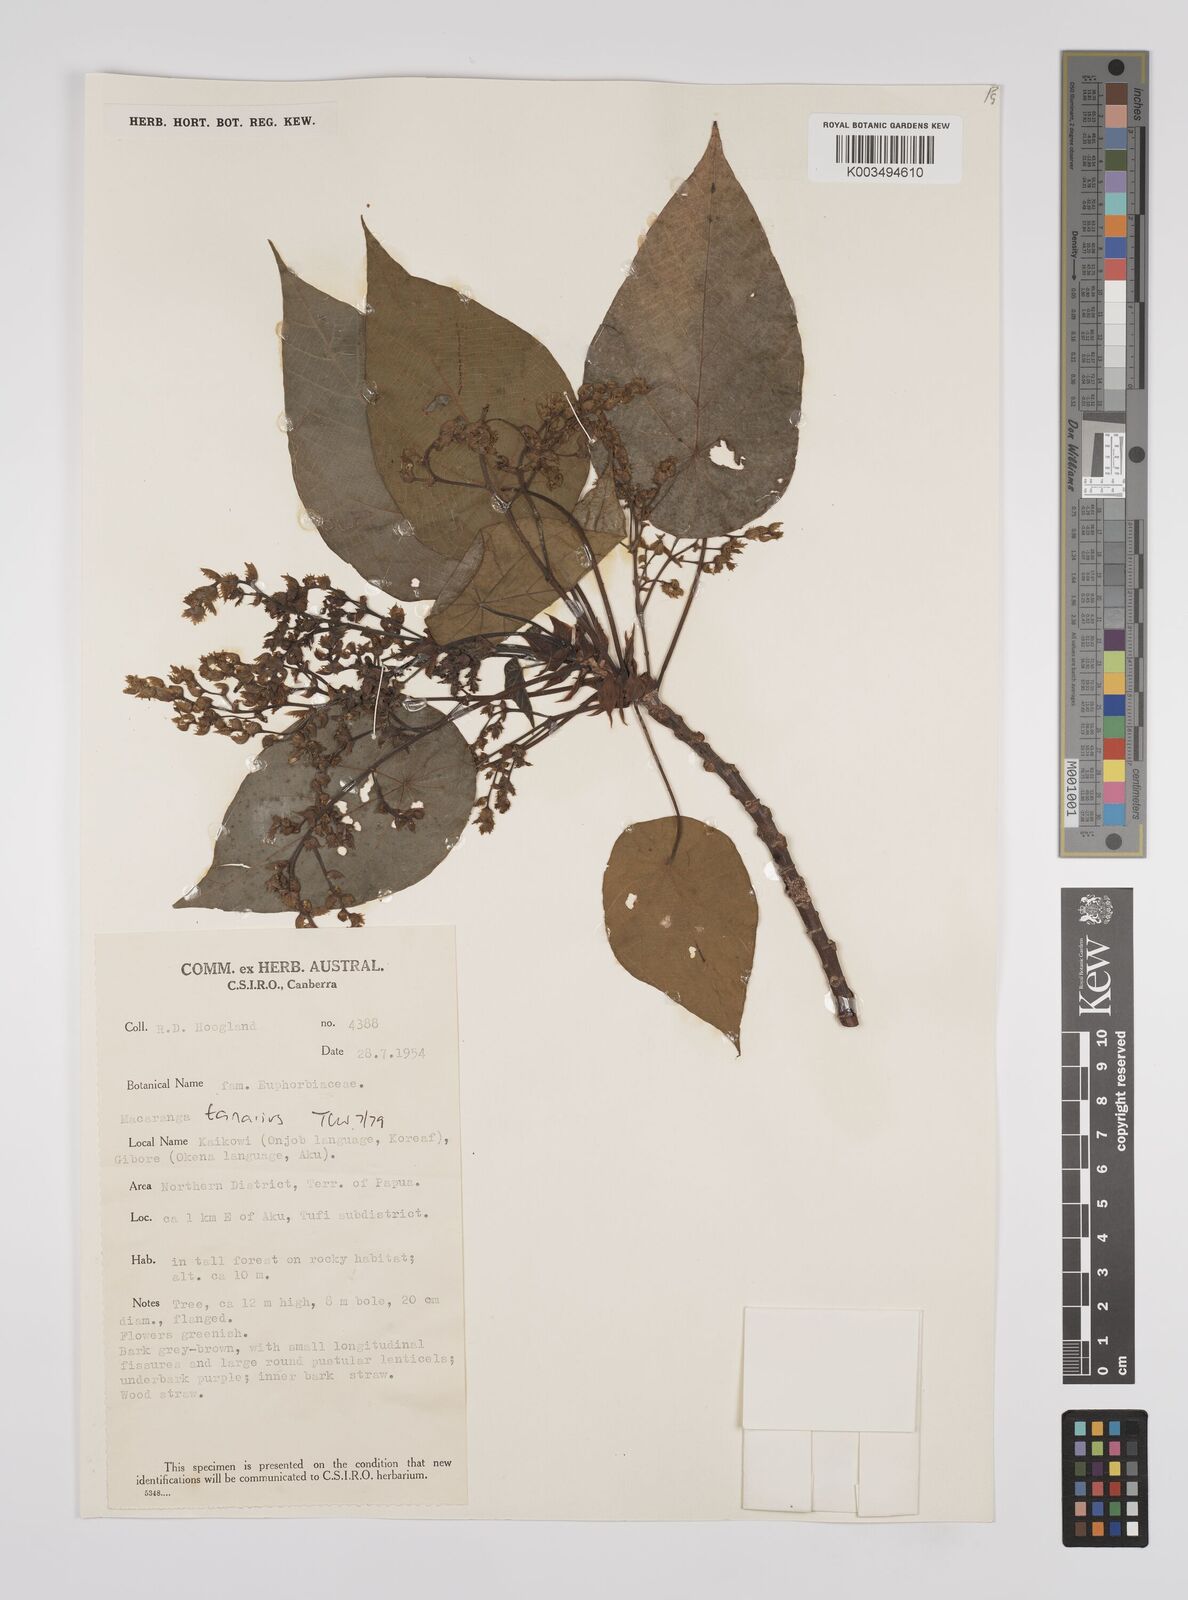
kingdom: Plantae
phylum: Tracheophyta
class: Magnoliopsida
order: Malpighiales
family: Euphorbiaceae
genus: Macaranga
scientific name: Macaranga tanarius
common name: Parasol leaf tree
